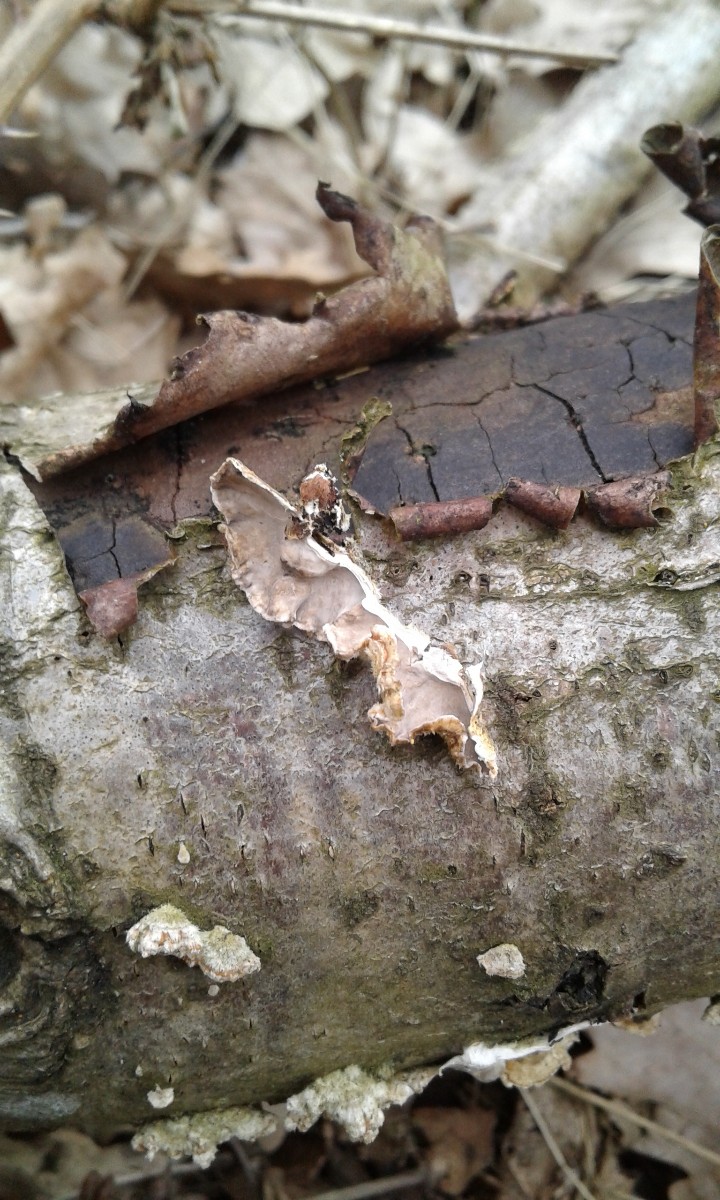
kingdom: Fungi
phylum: Basidiomycota
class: Agaricomycetes
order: Russulales
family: Stereaceae
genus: Stereum
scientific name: Stereum hirsutum
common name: håret lædersvamp
